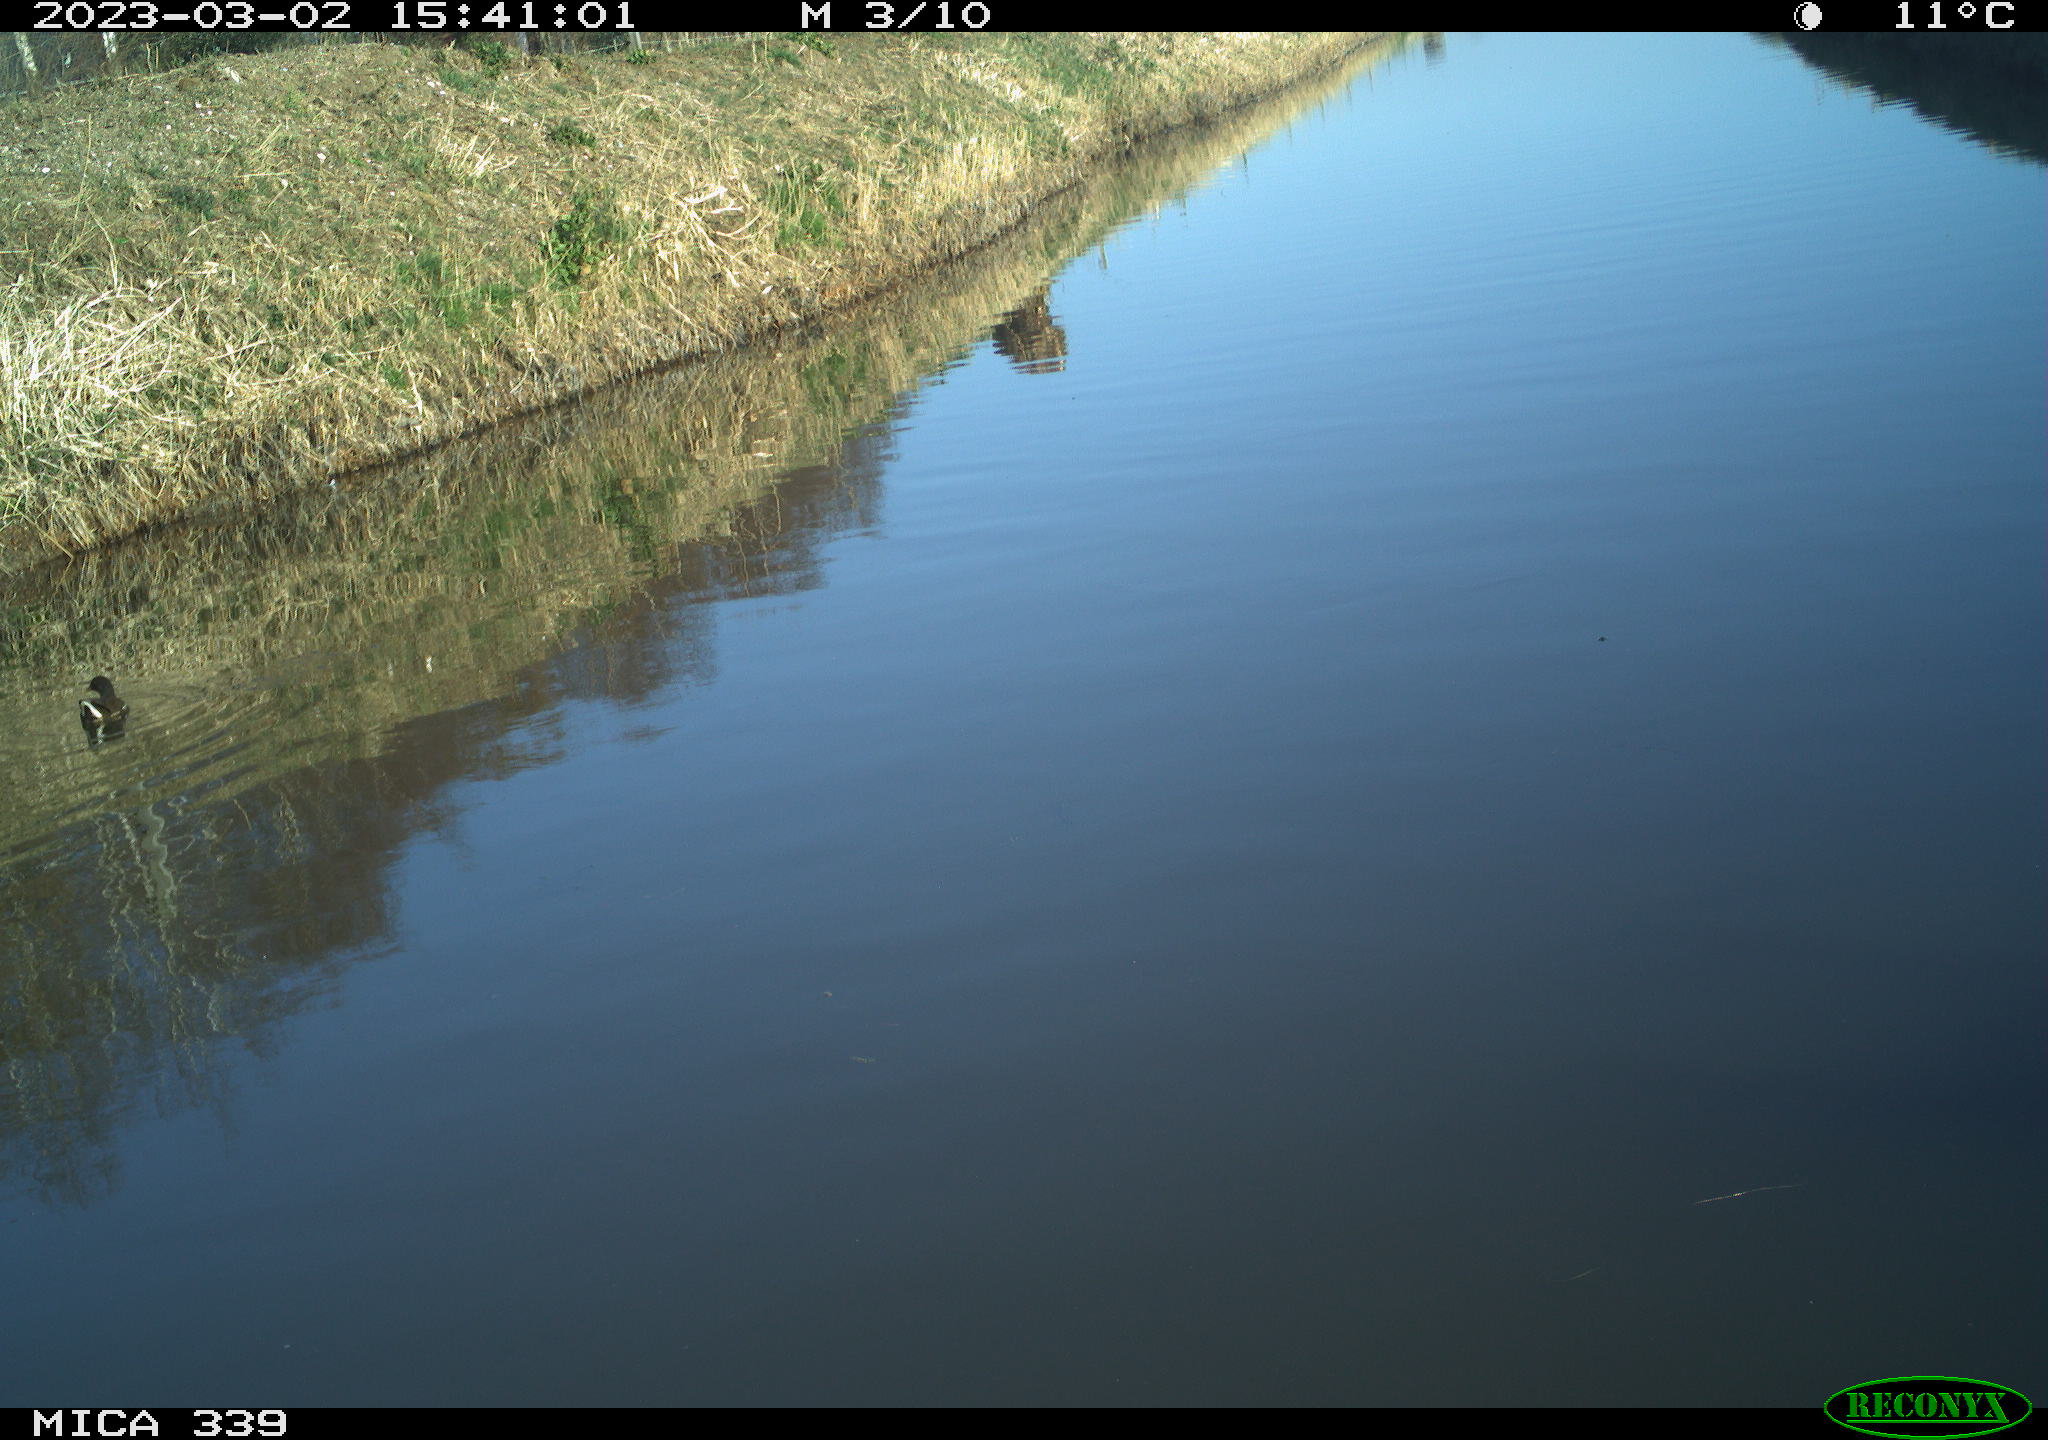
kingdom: Animalia
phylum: Chordata
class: Aves
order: Gruiformes
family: Rallidae
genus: Gallinula
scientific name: Gallinula chloropus
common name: Common moorhen
